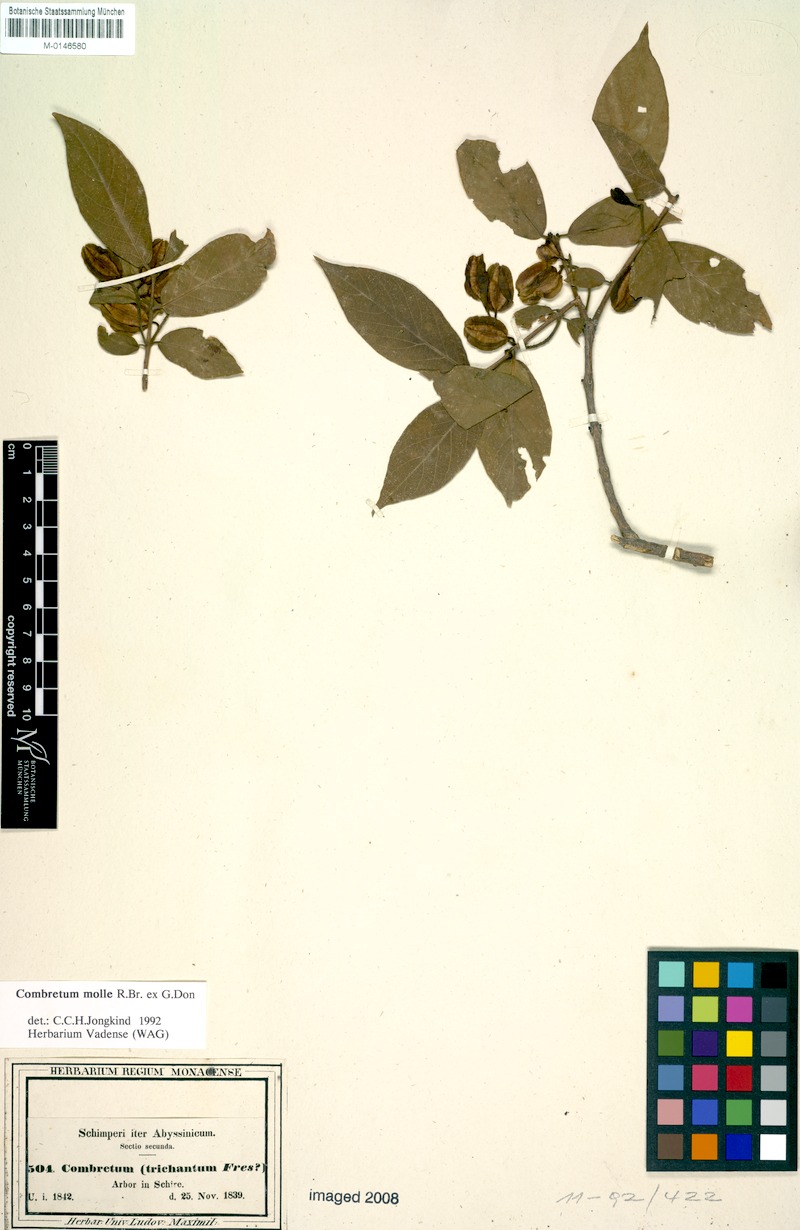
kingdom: Plantae
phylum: Tracheophyta
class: Magnoliopsida
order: Myrtales
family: Combretaceae
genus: Combretum
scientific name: Combretum molle
